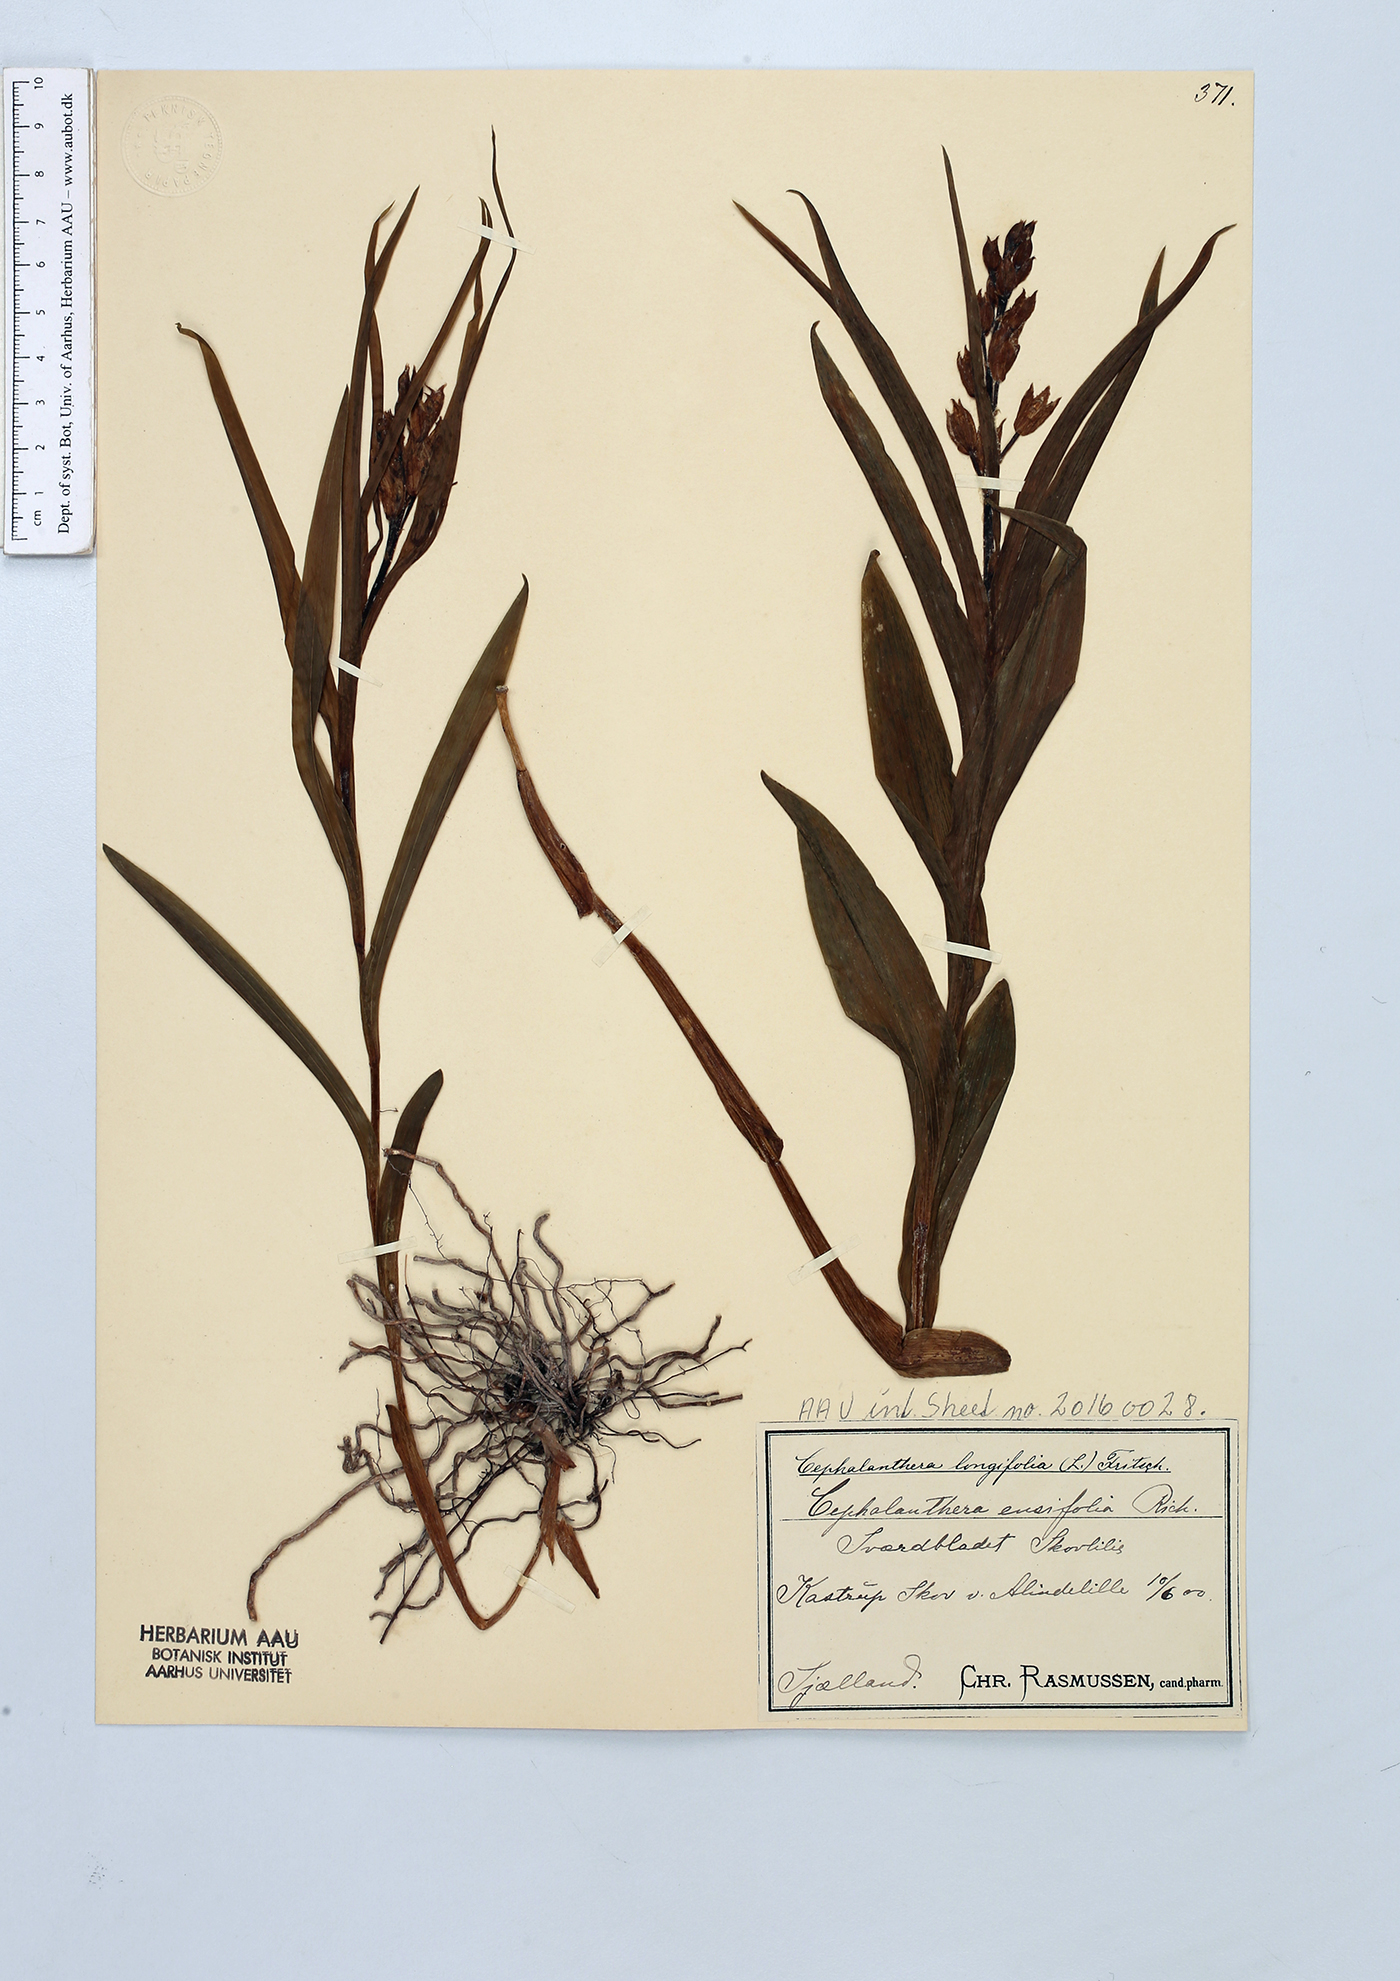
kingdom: Plantae
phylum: Tracheophyta
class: Liliopsida
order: Asparagales
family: Orchidaceae
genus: Cephalanthera
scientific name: Cephalanthera longifolia
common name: Narrow-leaved helleborine
